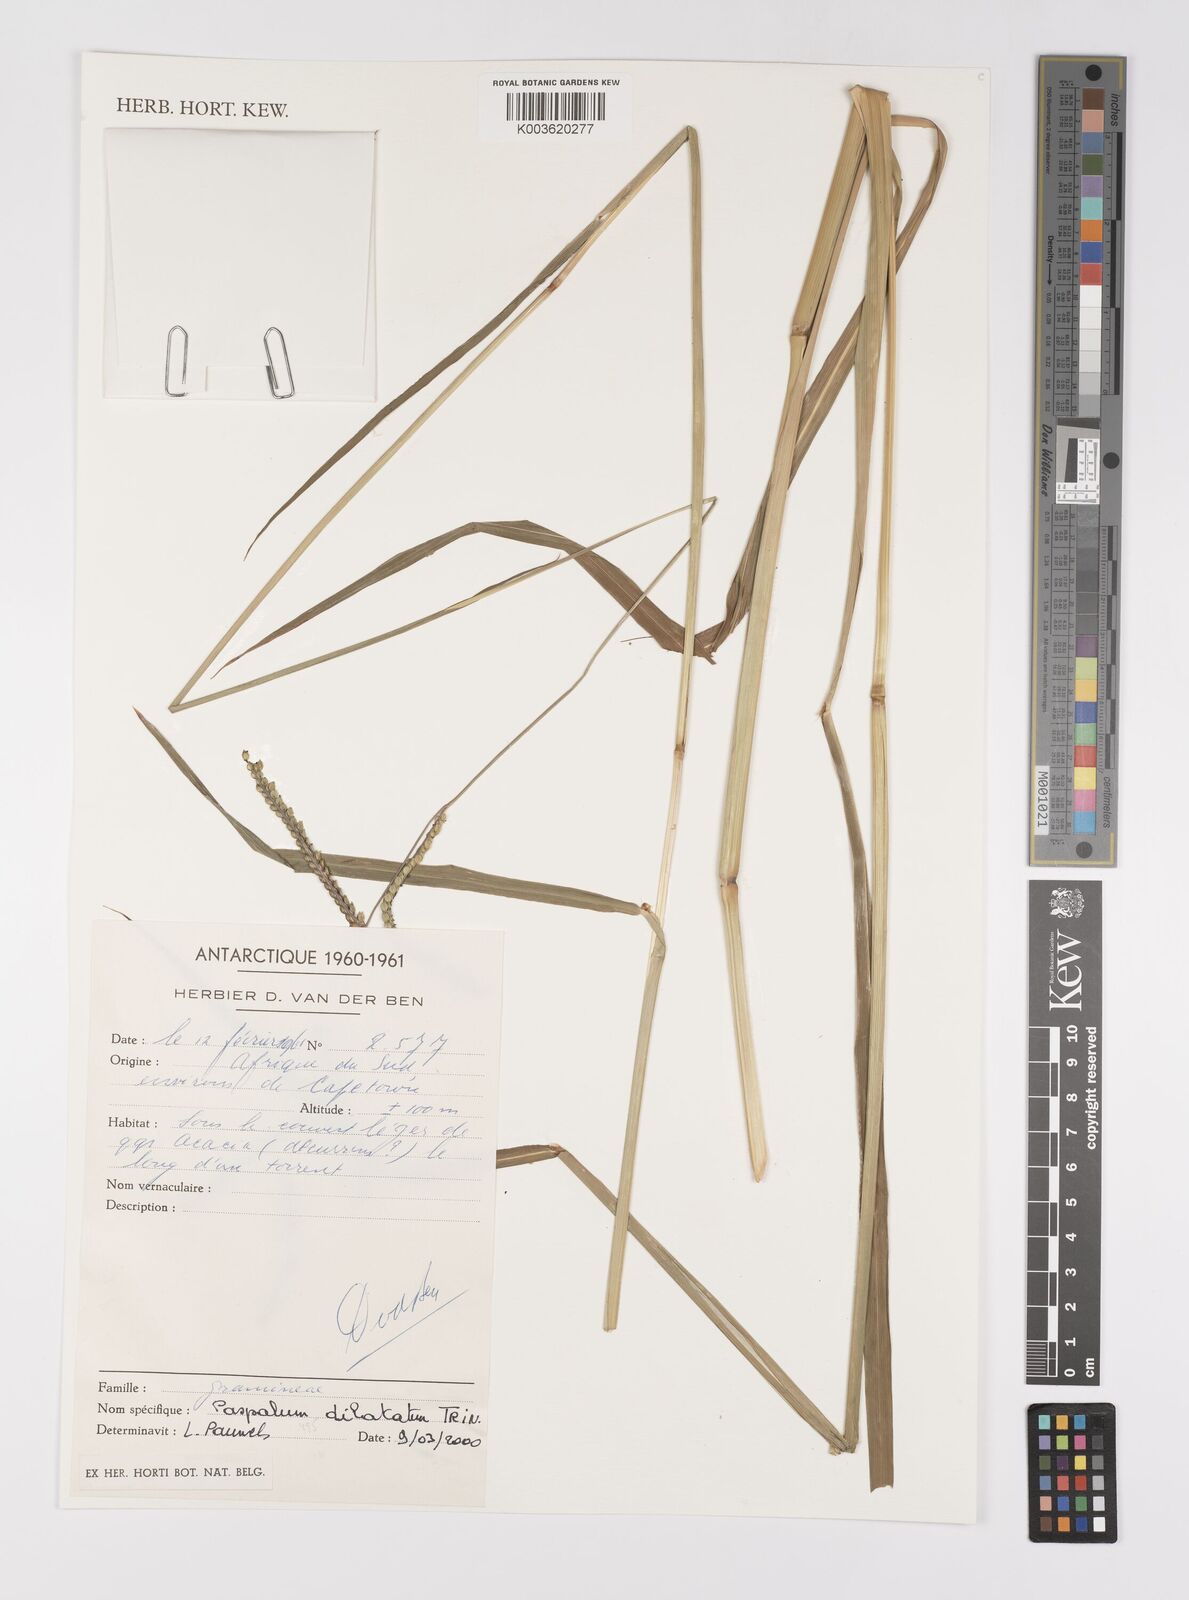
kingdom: Plantae
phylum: Tracheophyta
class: Liliopsida
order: Poales
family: Poaceae
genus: Paspalum
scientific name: Paspalum dilatatum
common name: Dallisgrass
